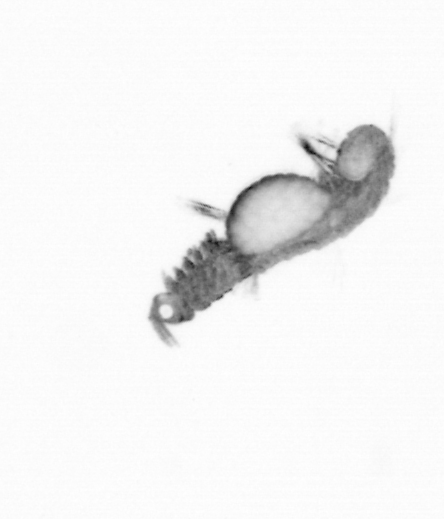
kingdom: Animalia
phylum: Annelida
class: Polychaeta
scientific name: Polychaeta
